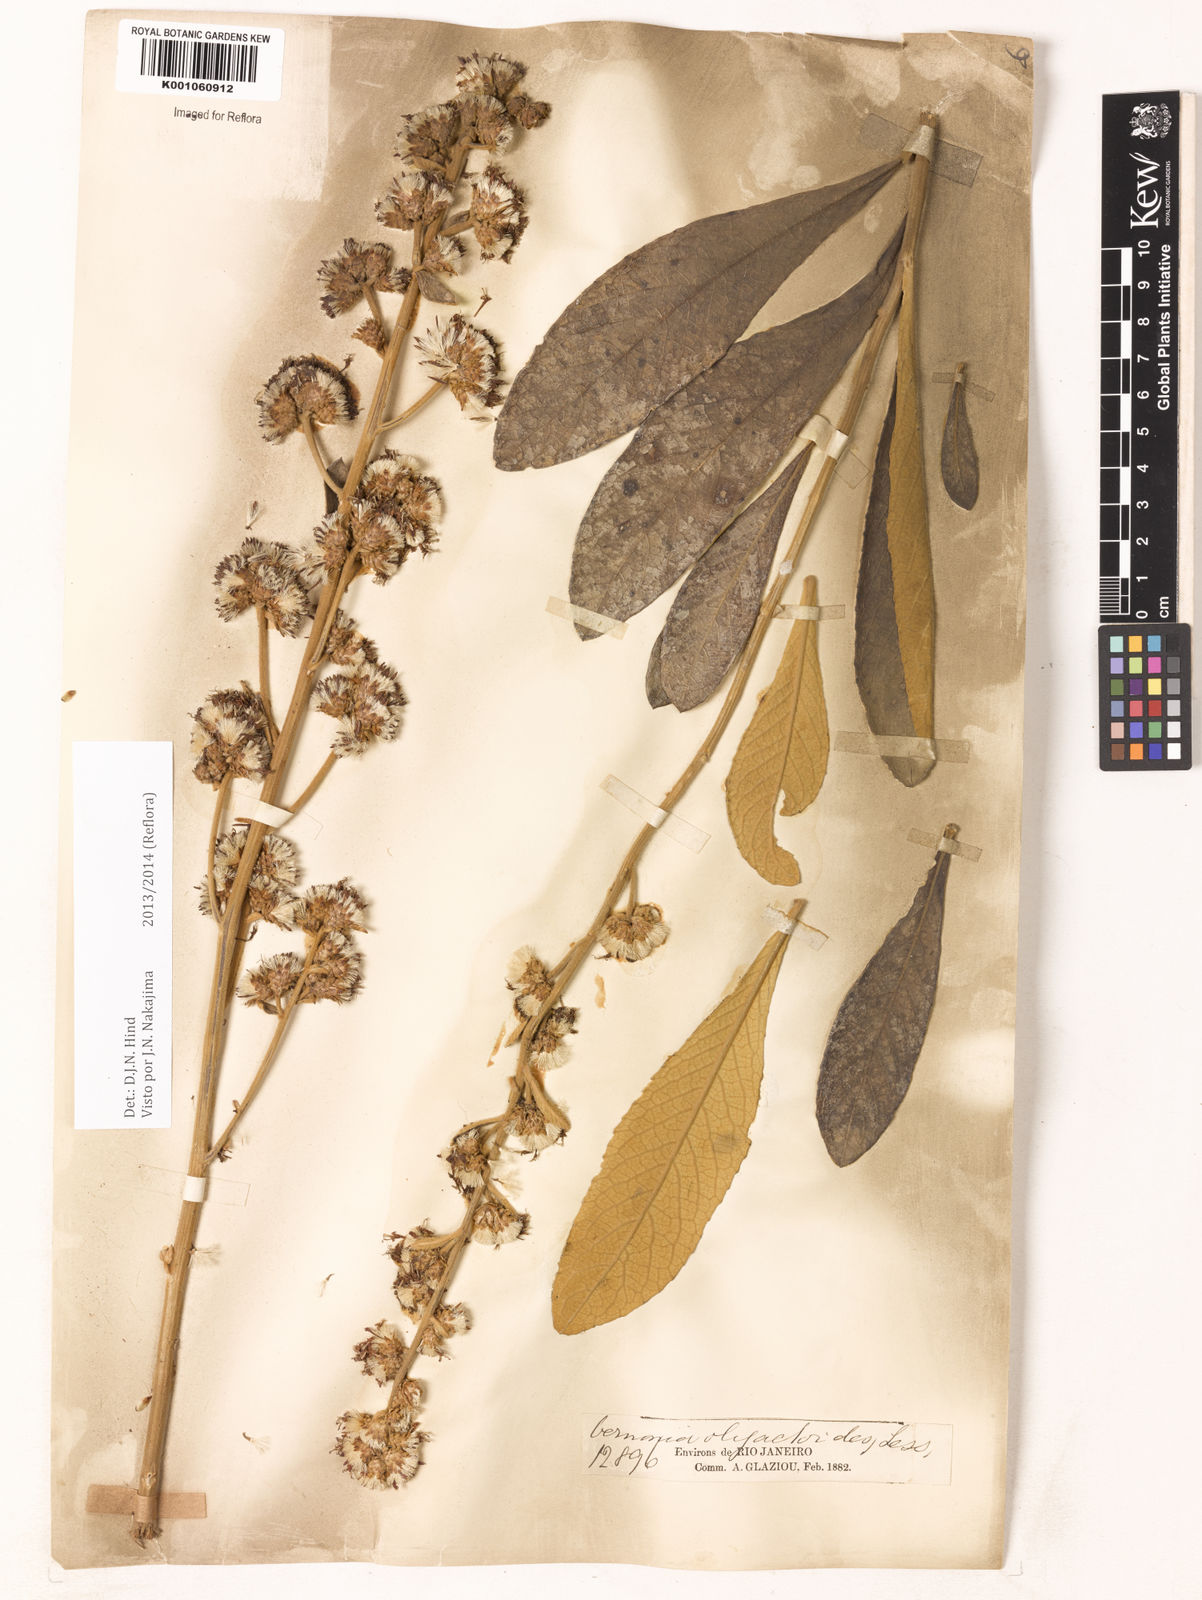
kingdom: Plantae
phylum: Tracheophyta
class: Magnoliopsida
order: Asterales
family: Asteraceae
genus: Vernonanthura
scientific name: Vernonanthura oligactoides
